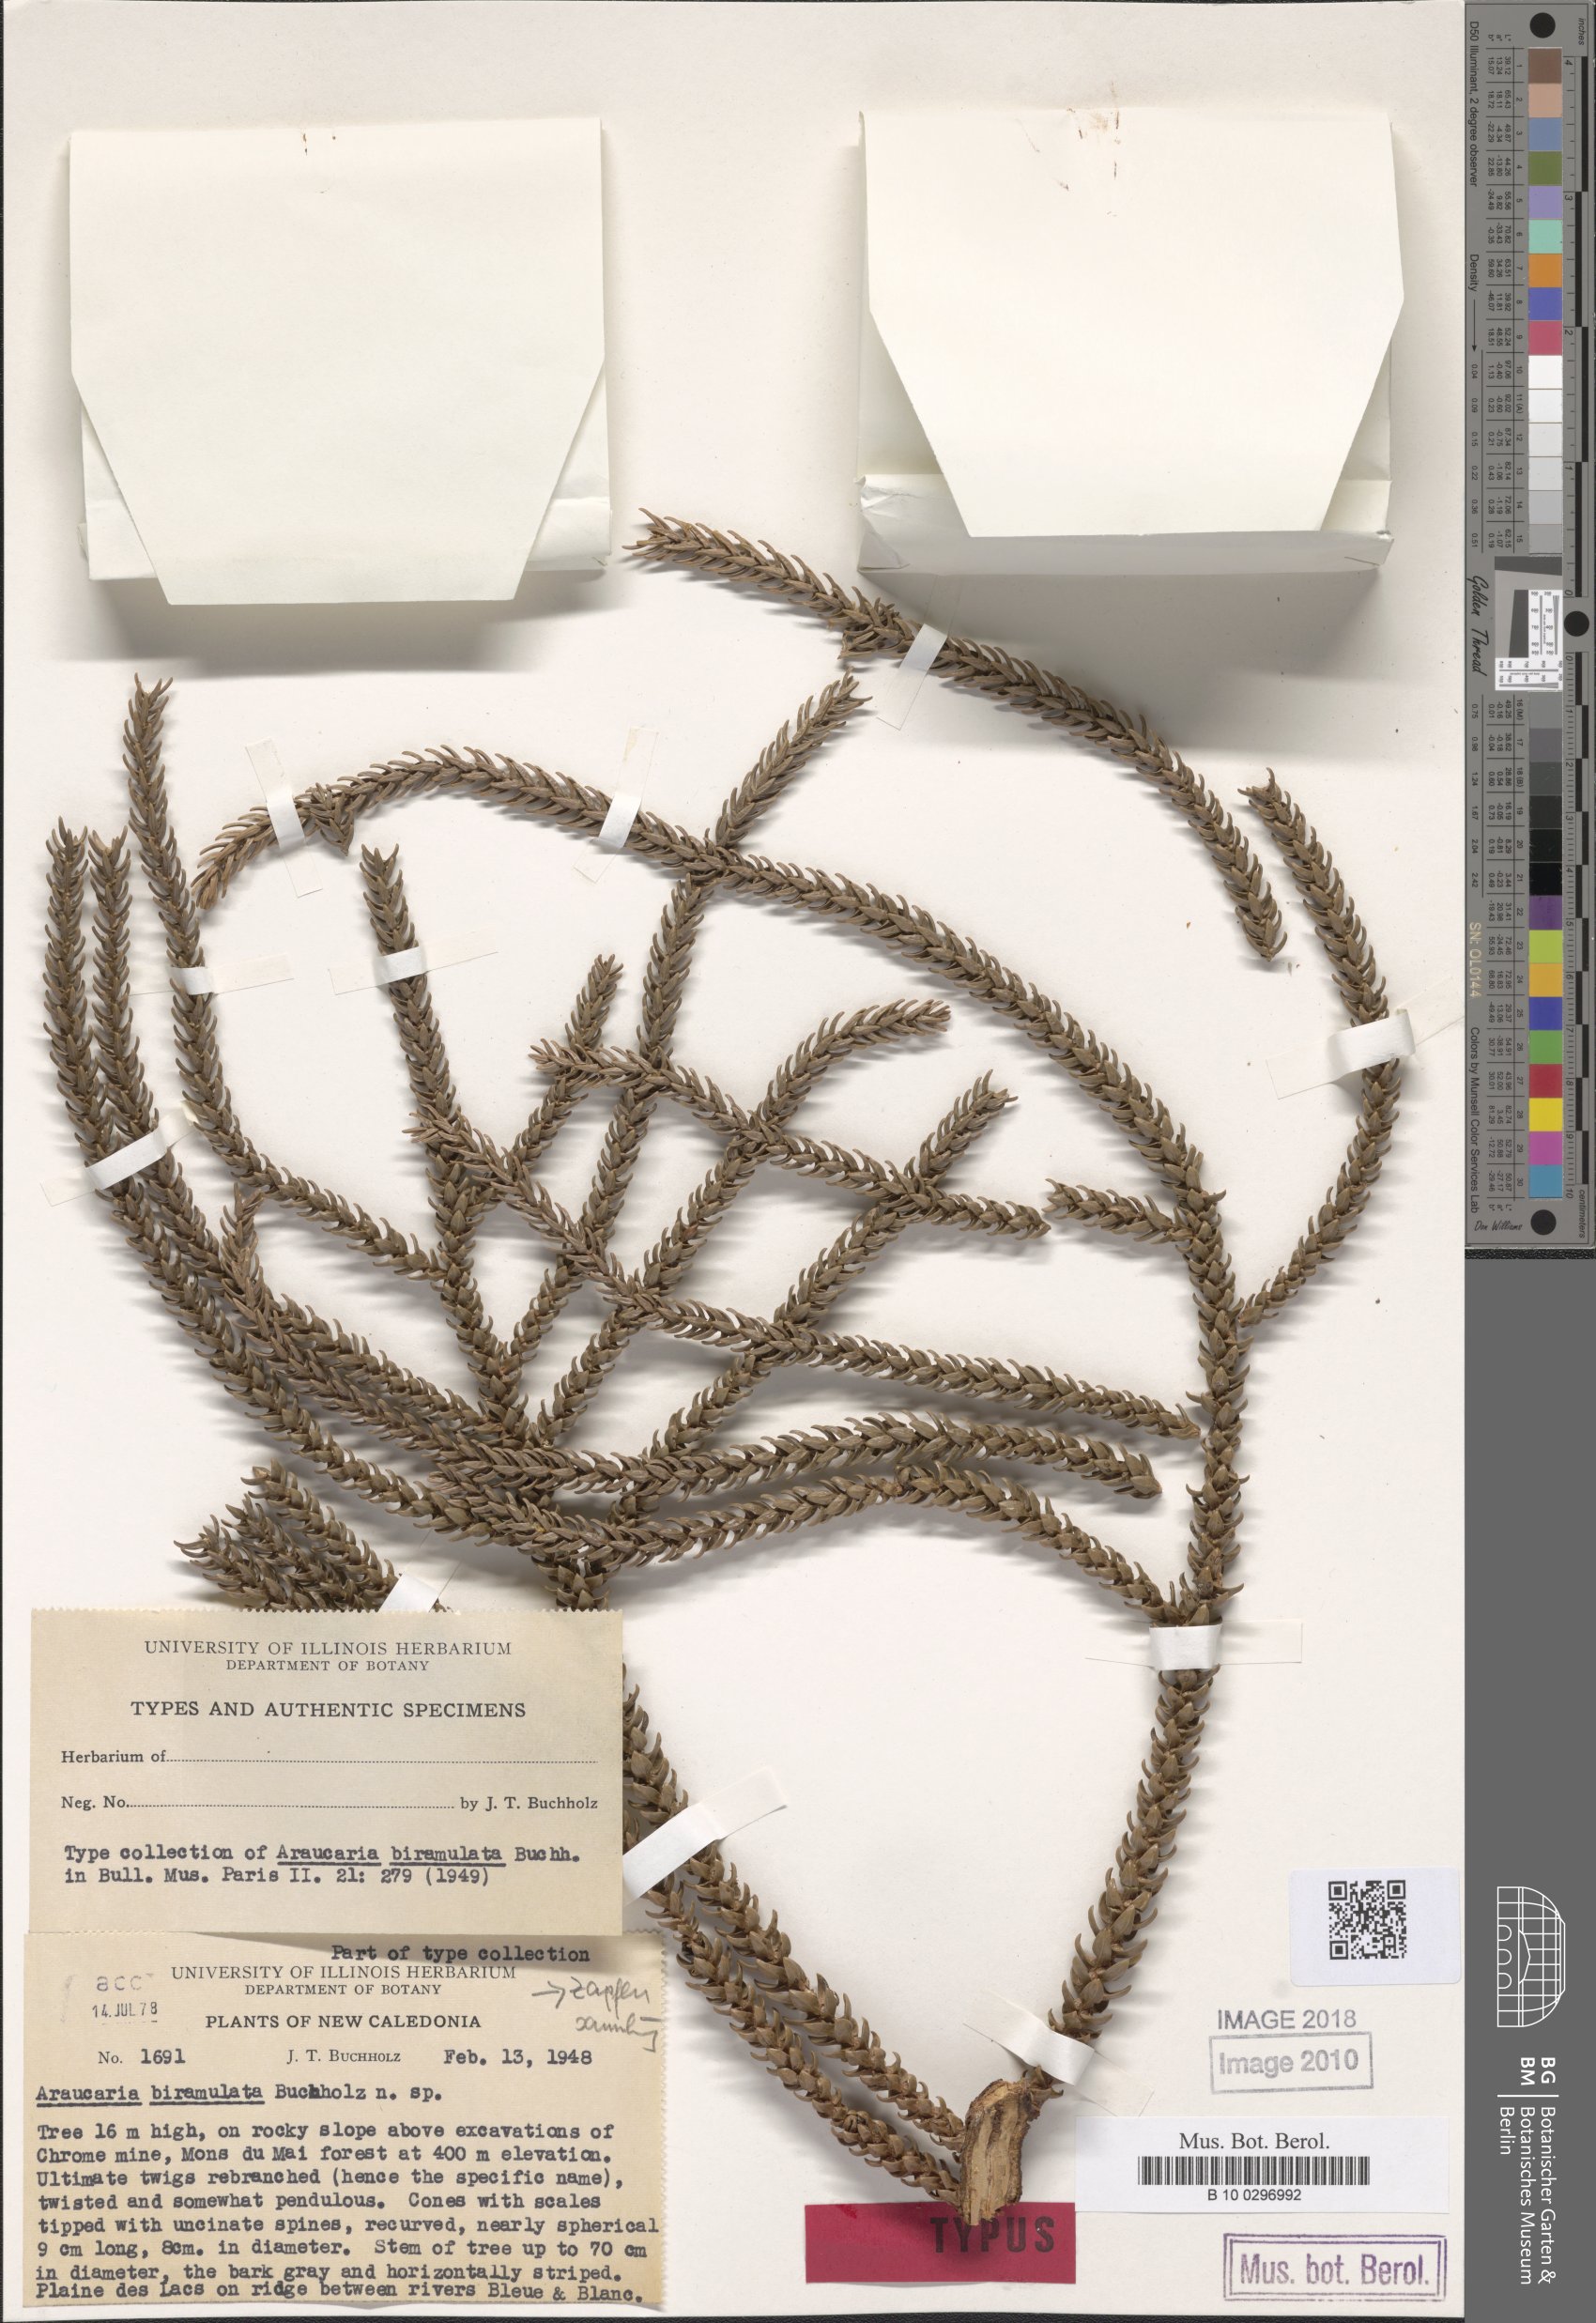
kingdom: Plantae
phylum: Tracheophyta
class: Pinopsida
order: Pinales
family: Araucariaceae
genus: Araucaria
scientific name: Araucaria biramulata
